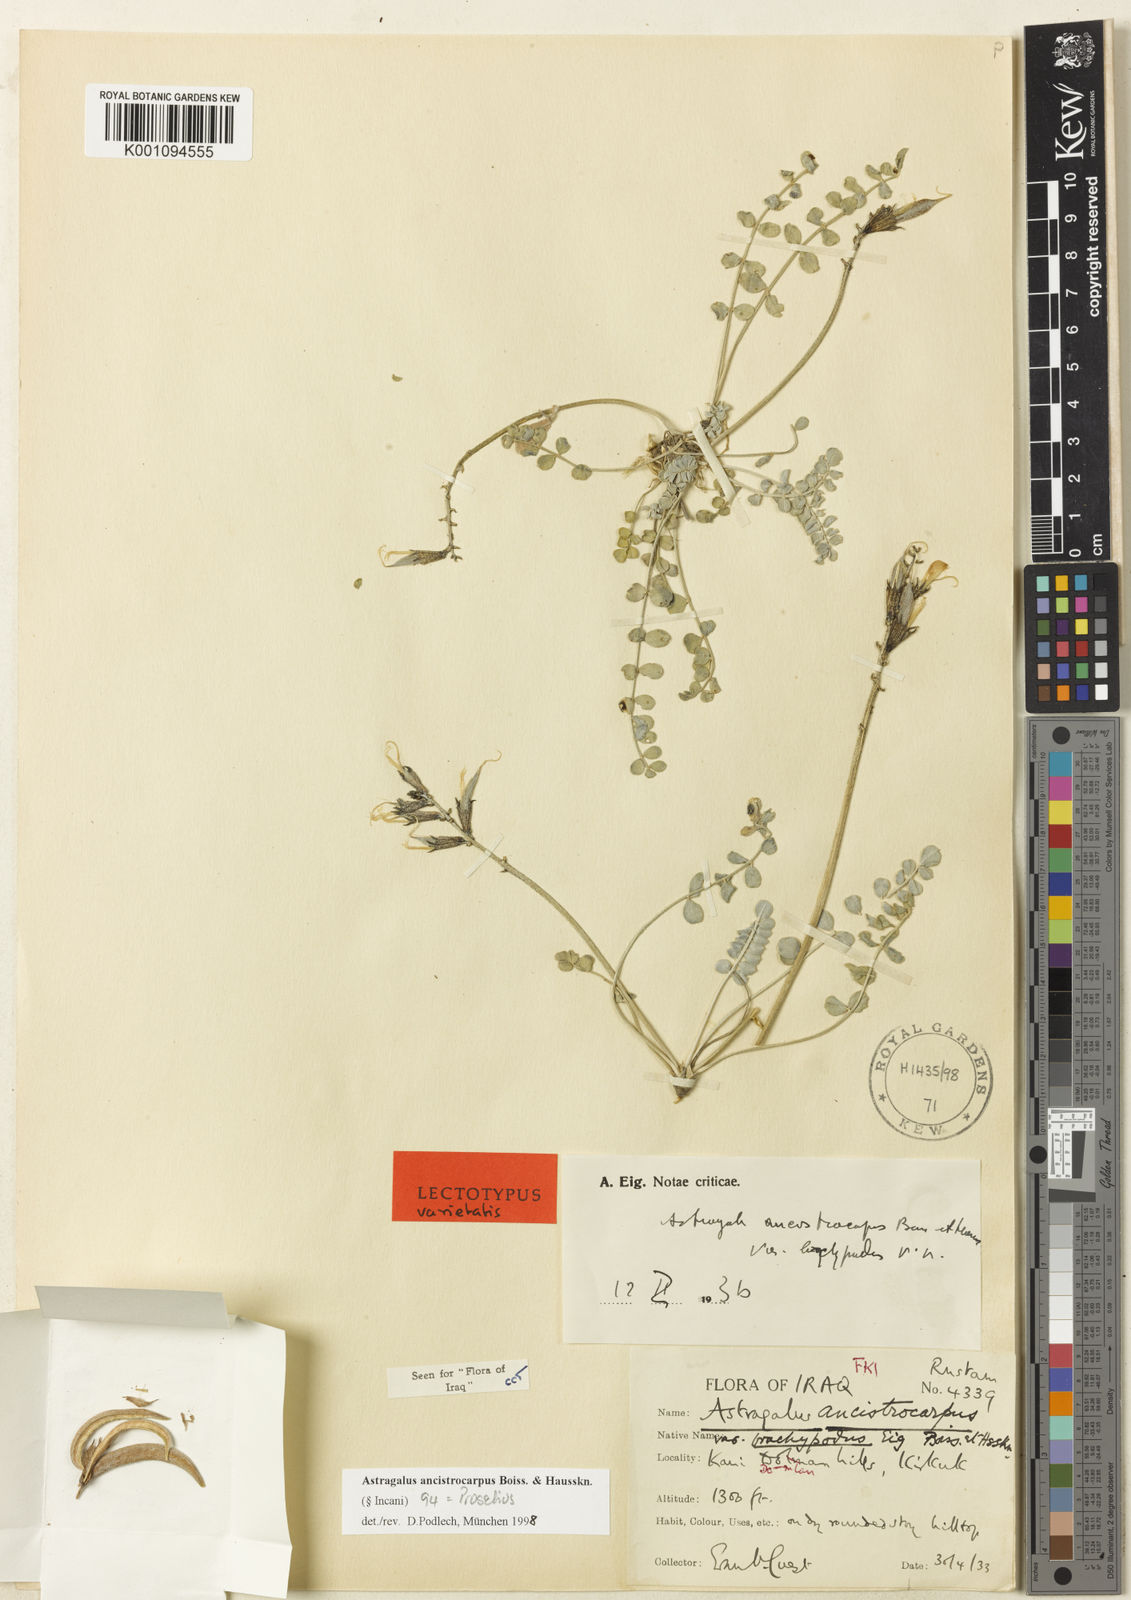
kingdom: Plantae
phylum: Tracheophyta
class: Magnoliopsida
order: Fabales
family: Fabaceae
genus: Astragalus
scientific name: Astragalus
